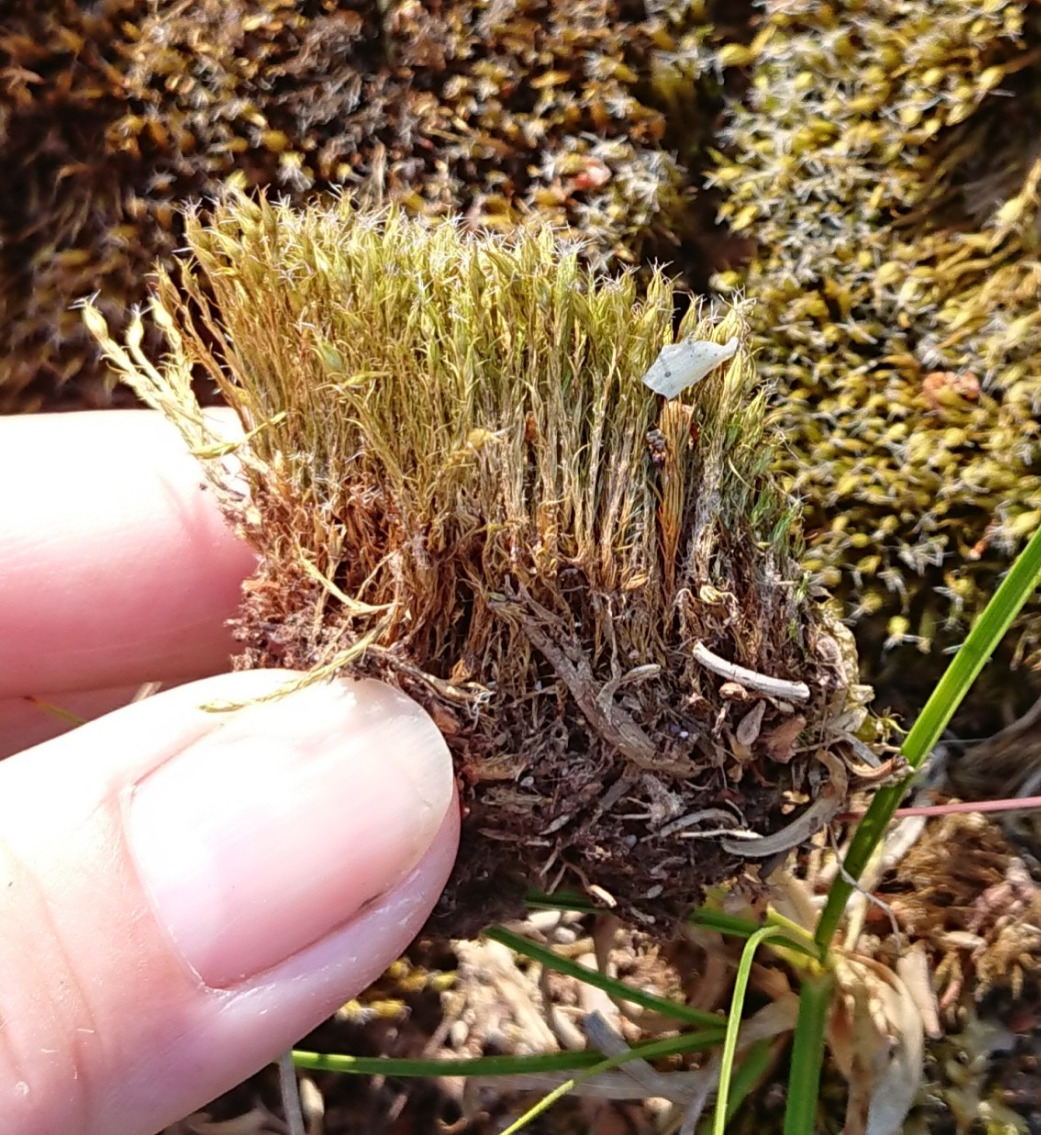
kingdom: Plantae
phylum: Bryophyta
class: Bryopsida
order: Dicranales
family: Leucobryaceae
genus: Campylopus
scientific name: Campylopus introflexus
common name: Stjerne-bredribbe
